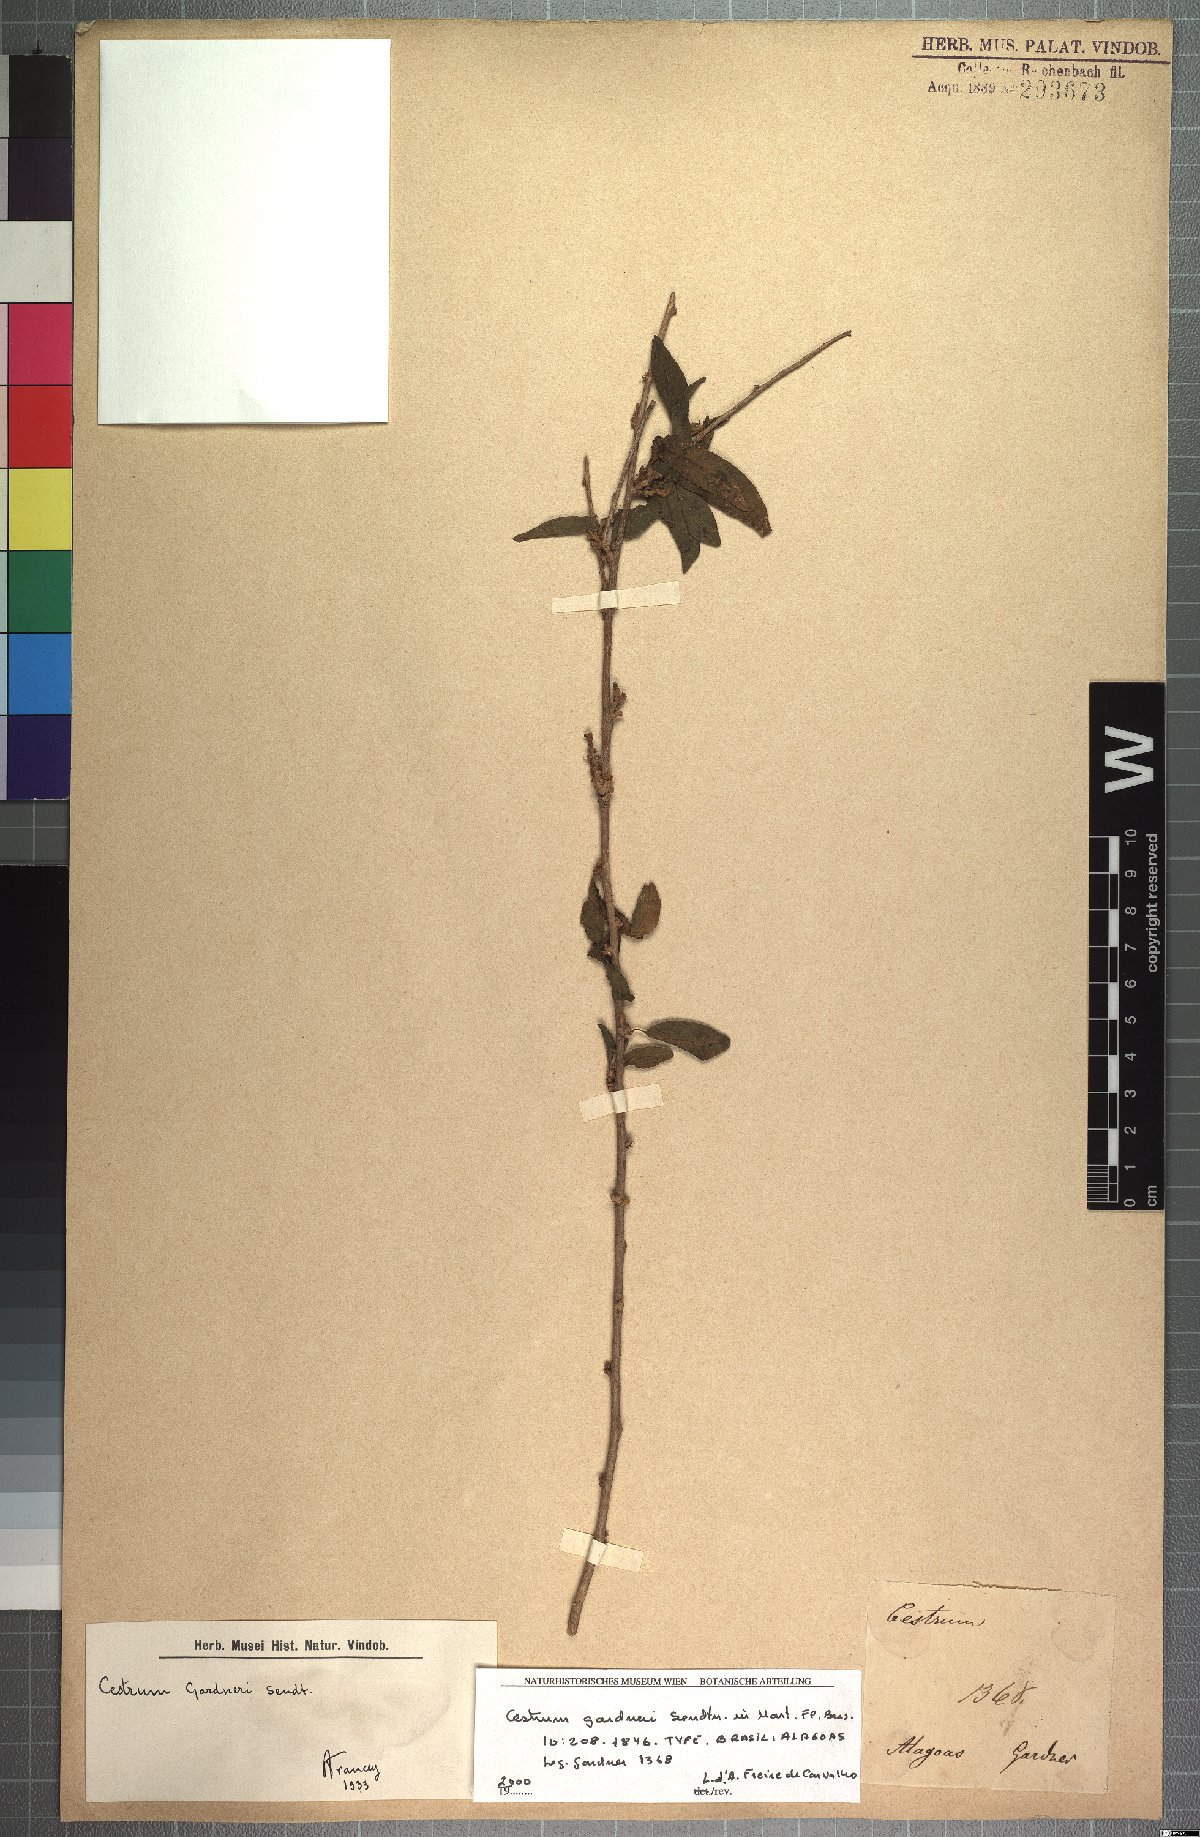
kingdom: Plantae
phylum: Tracheophyta
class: Magnoliopsida
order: Solanales
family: Solanaceae
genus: Cestrum
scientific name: Cestrum gardneri
